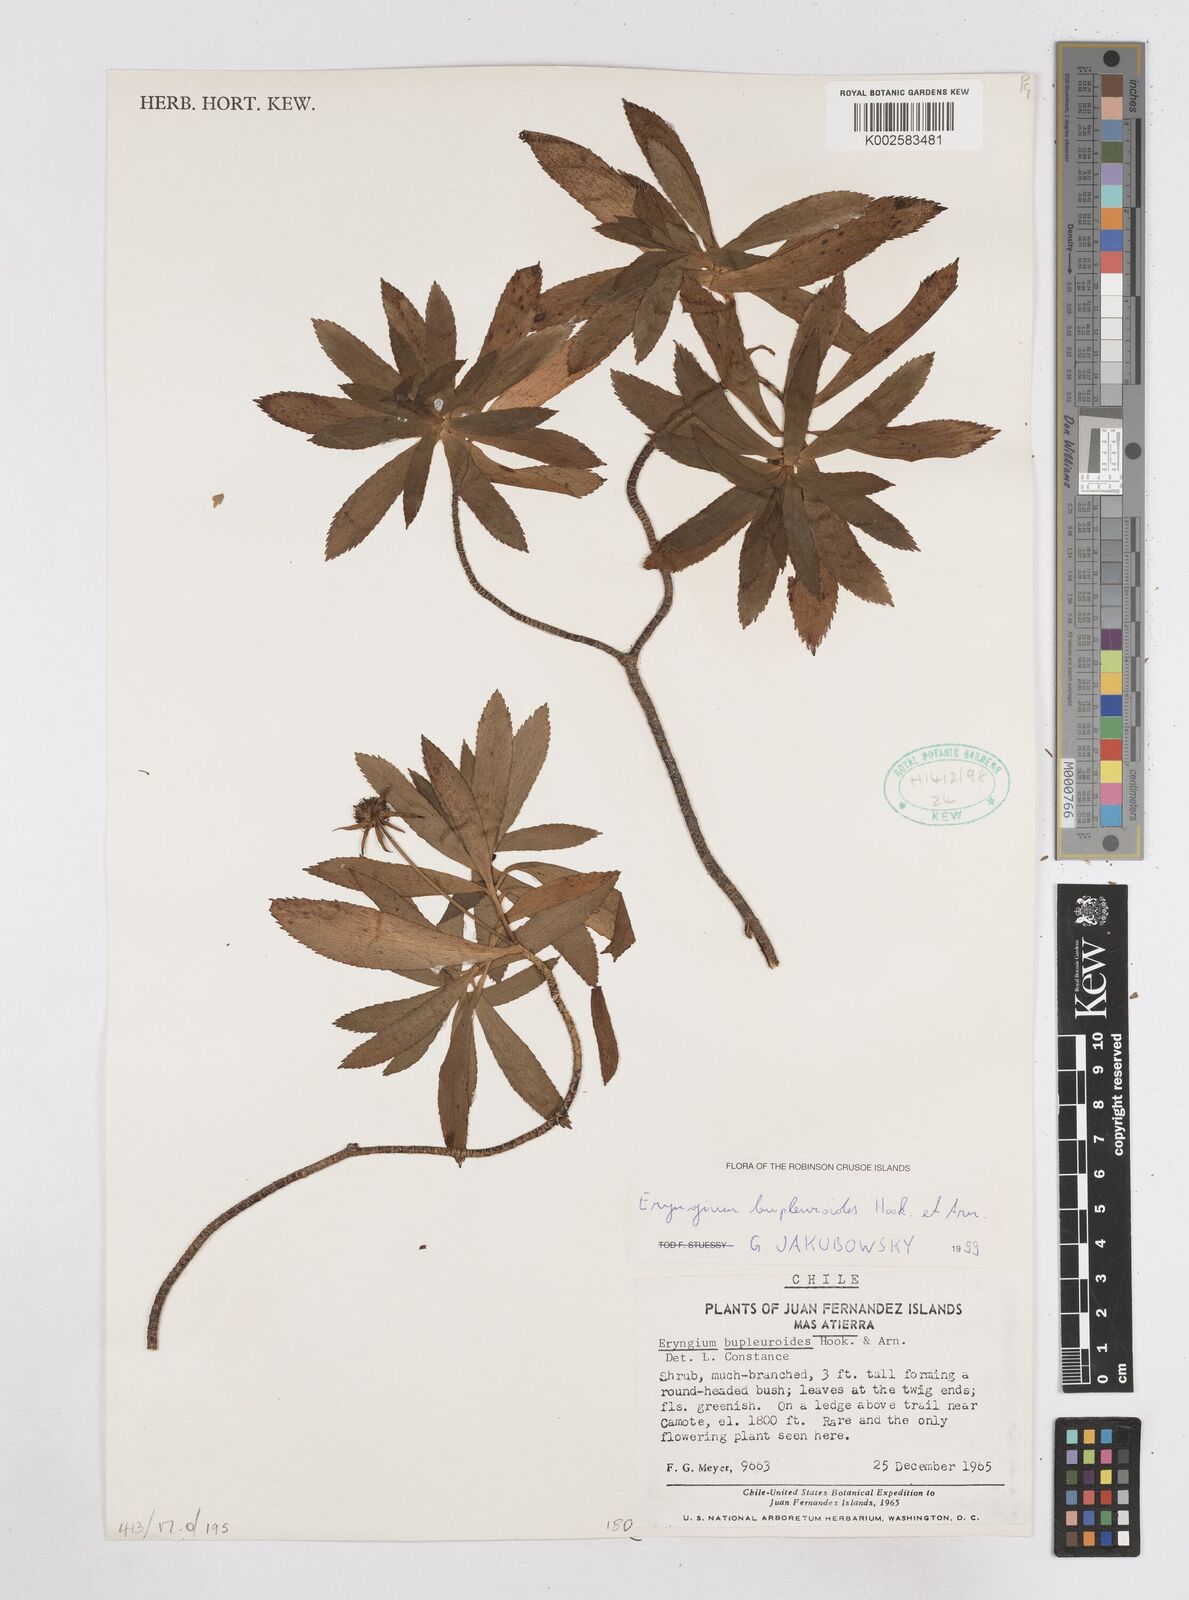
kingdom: Plantae
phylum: Tracheophyta
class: Magnoliopsida
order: Apiales
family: Apiaceae
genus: Eryngium
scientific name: Eryngium bupleuroides
